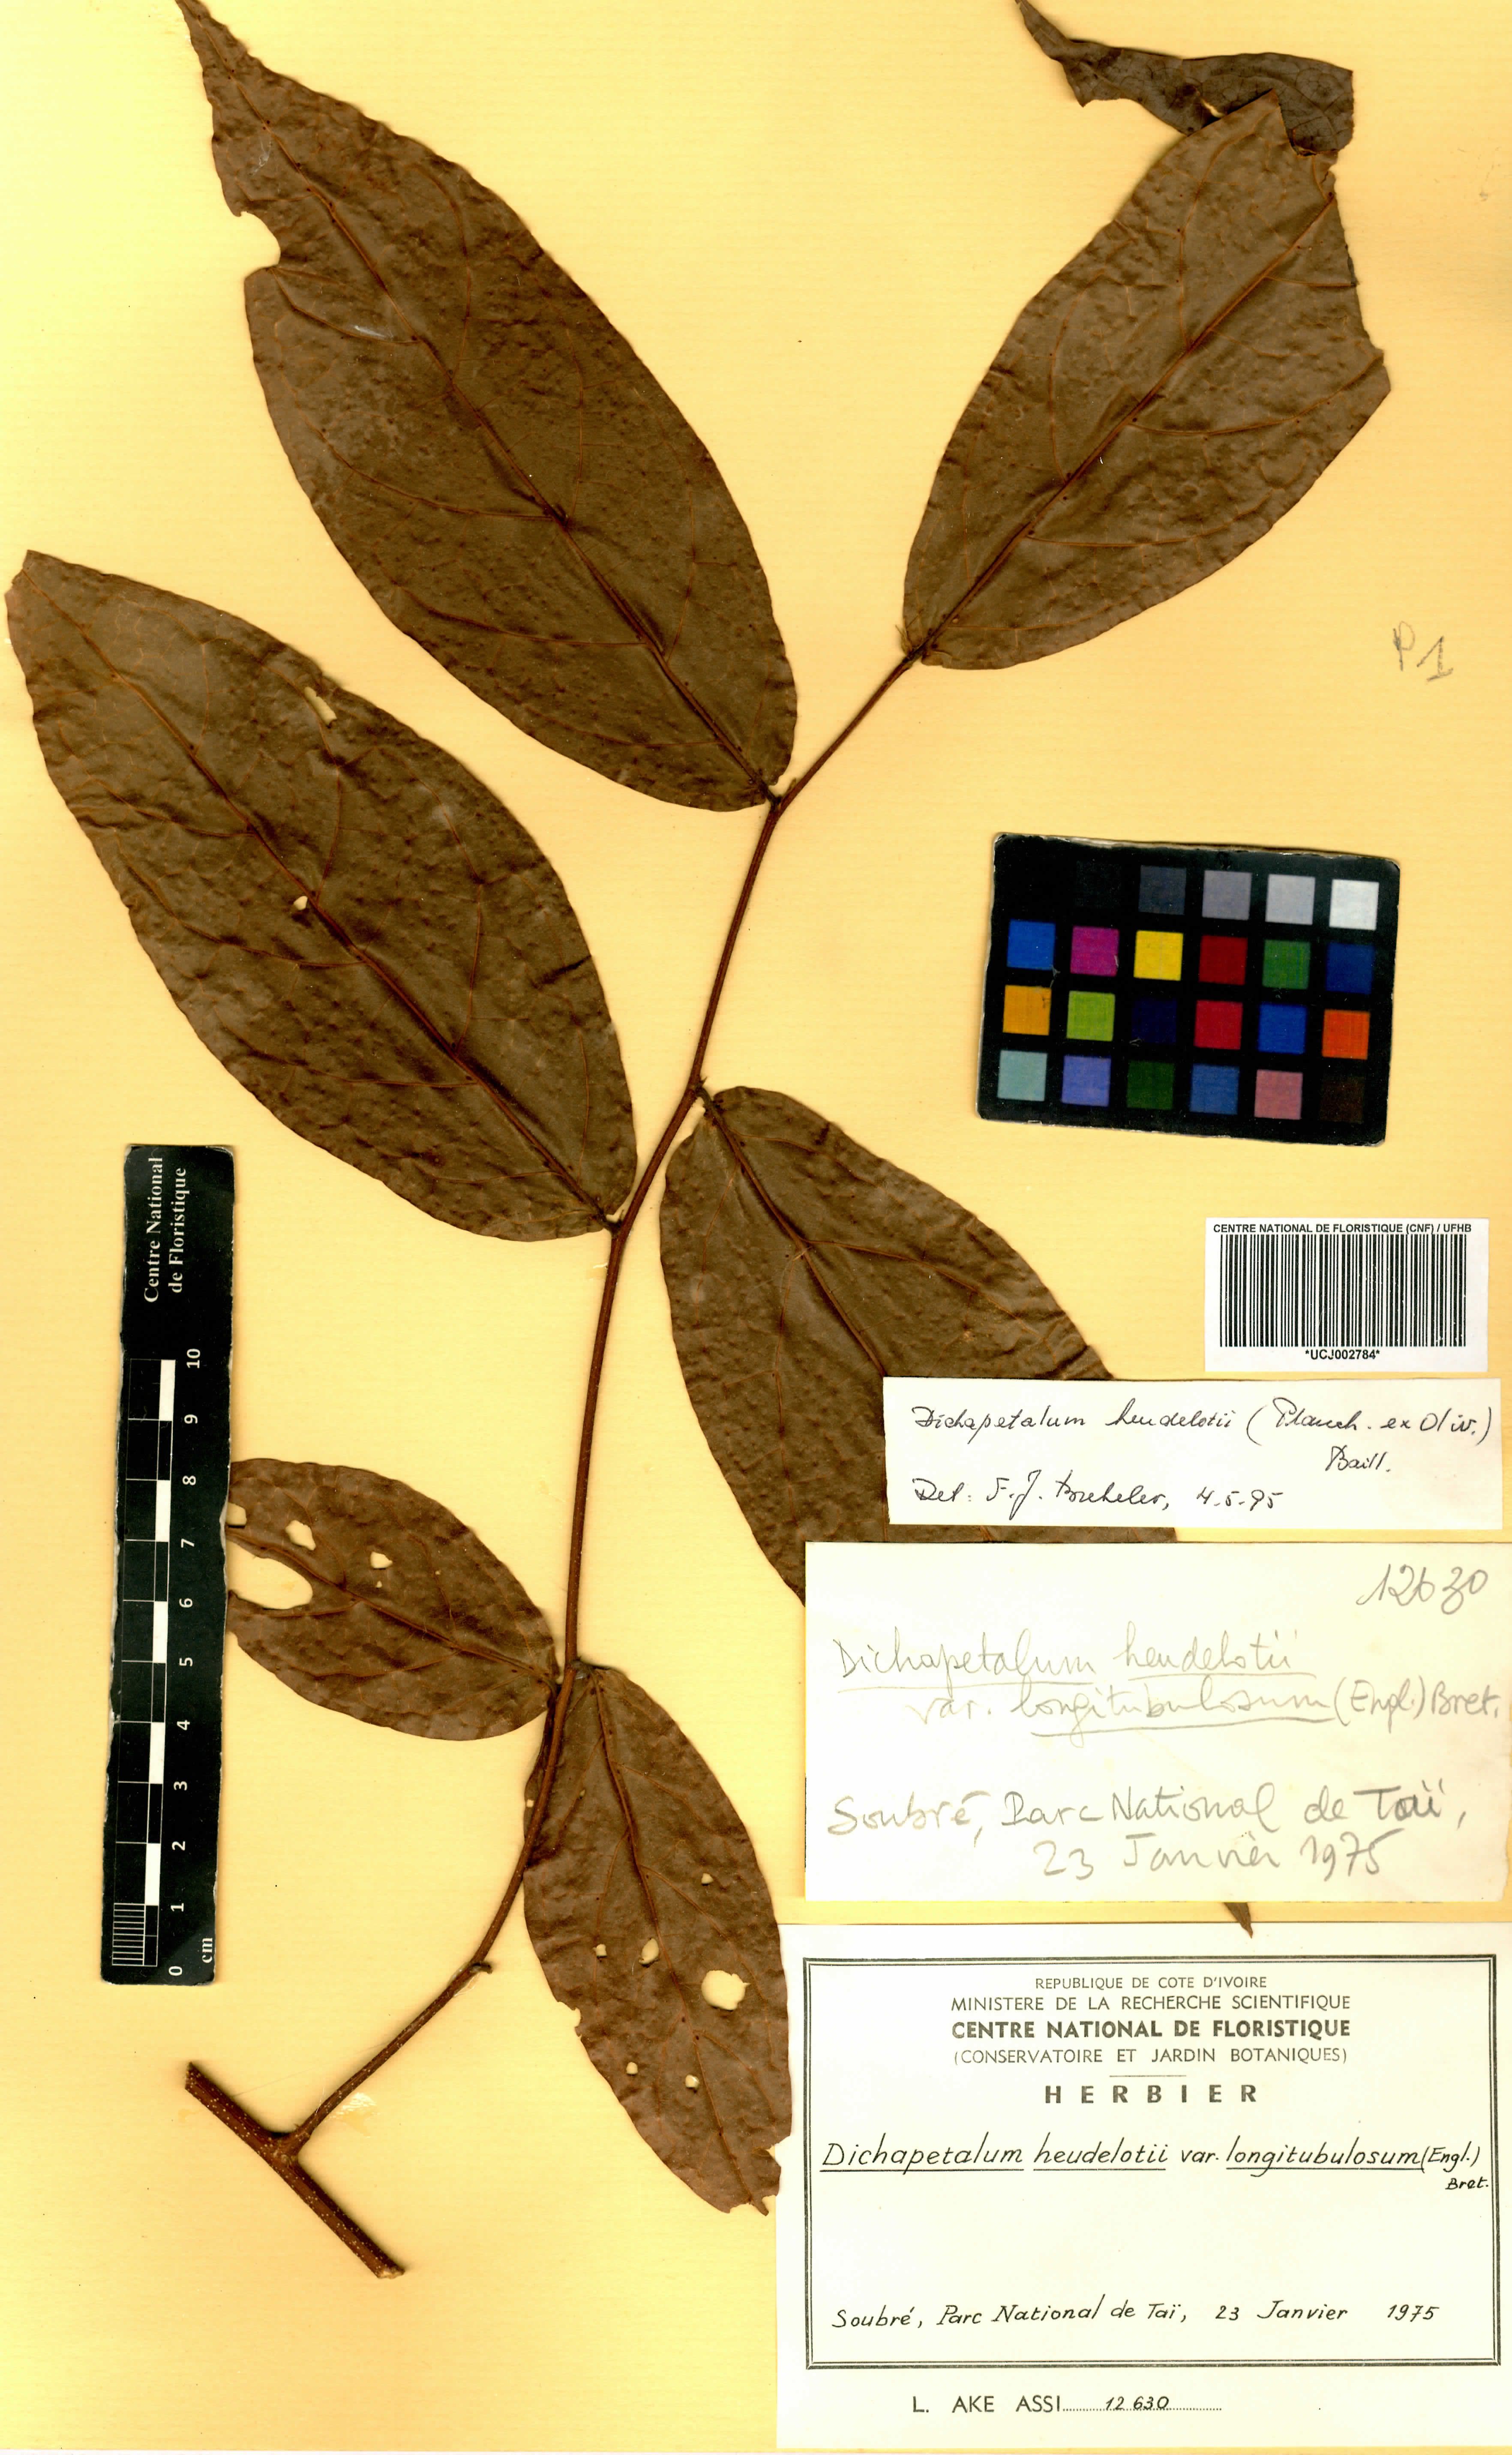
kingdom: Plantae
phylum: Tracheophyta
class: Magnoliopsida
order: Malpighiales
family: Dichapetalaceae
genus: Dichapetalum
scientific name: Dichapetalum heudelotii
